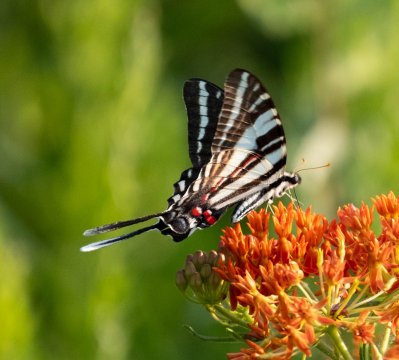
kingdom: Animalia
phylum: Arthropoda
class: Insecta
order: Lepidoptera
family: Papilionidae
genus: Protographium
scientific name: Protographium marcellus
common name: Zebra Swallowtail
